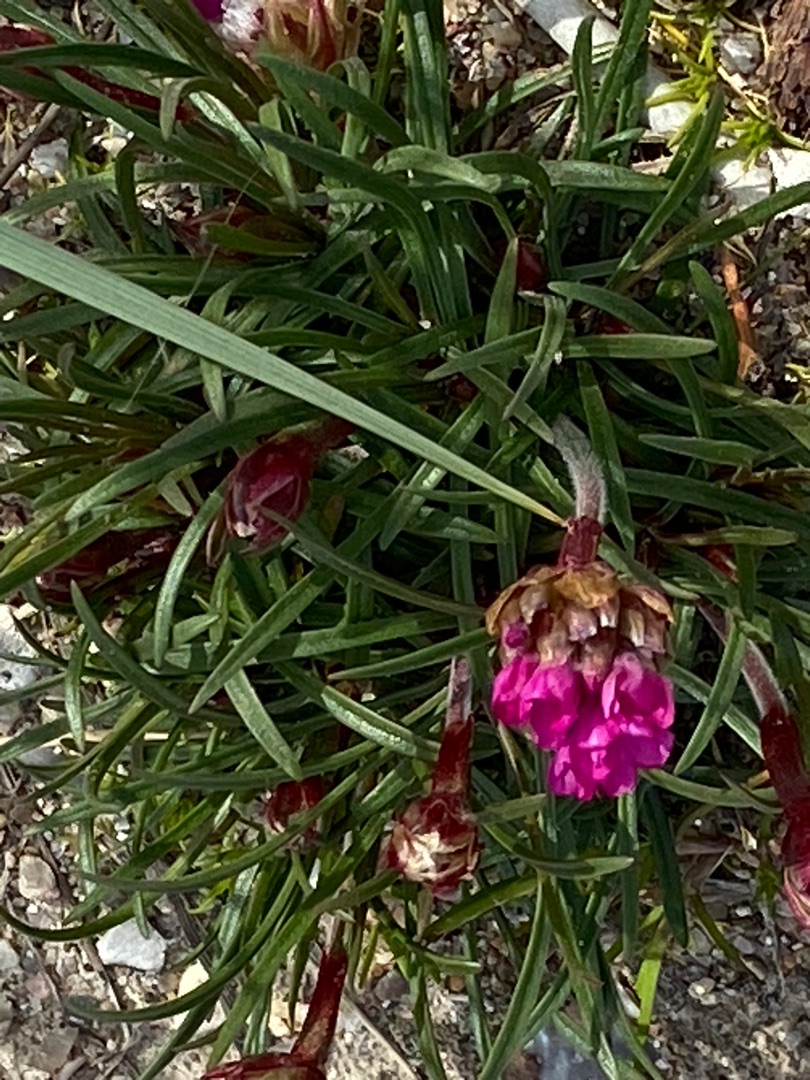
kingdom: Plantae
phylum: Tracheophyta
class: Magnoliopsida
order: Caryophyllales
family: Plumbaginaceae
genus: Armeria
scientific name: Armeria maritima
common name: Engelskgræs
